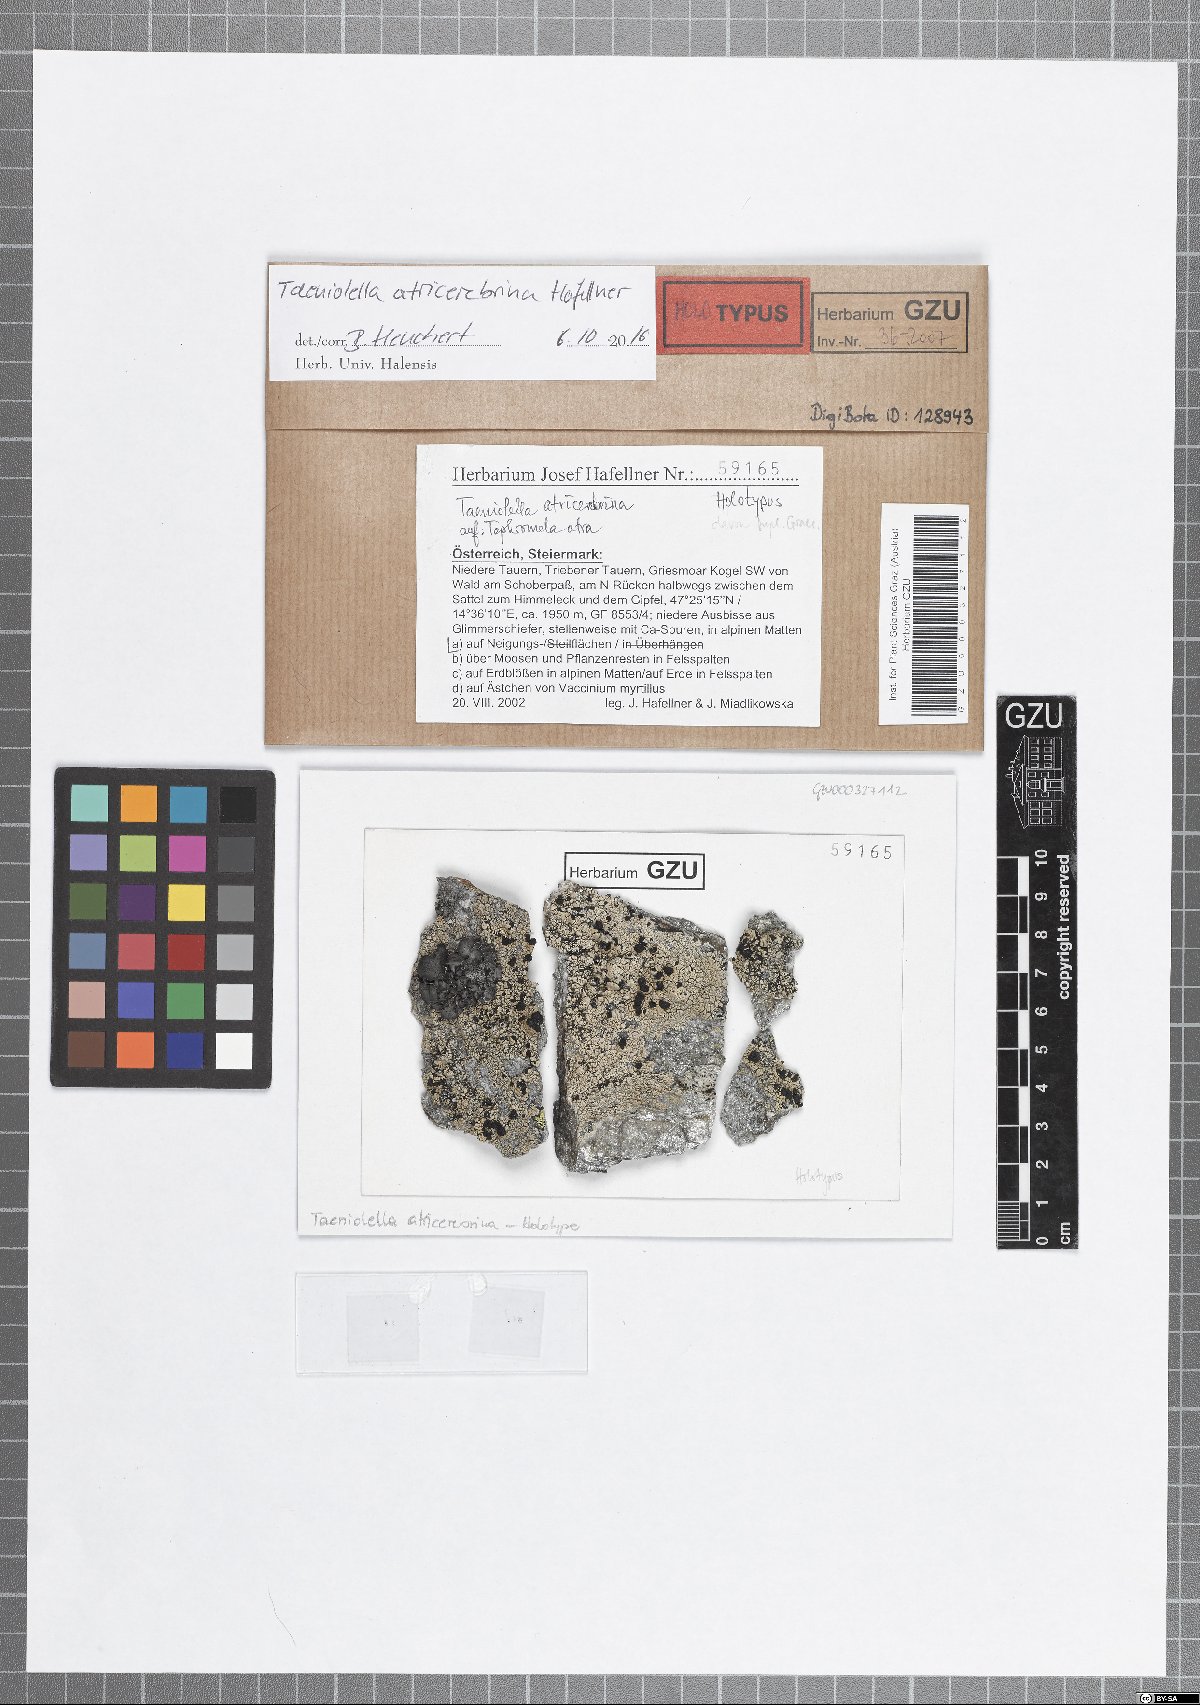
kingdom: Fungi
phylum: Ascomycota
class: Dothideomycetes
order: Mytilinidiales
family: Mytilinidiaceae
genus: Taeniolella
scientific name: Taeniolella atricerebrina
